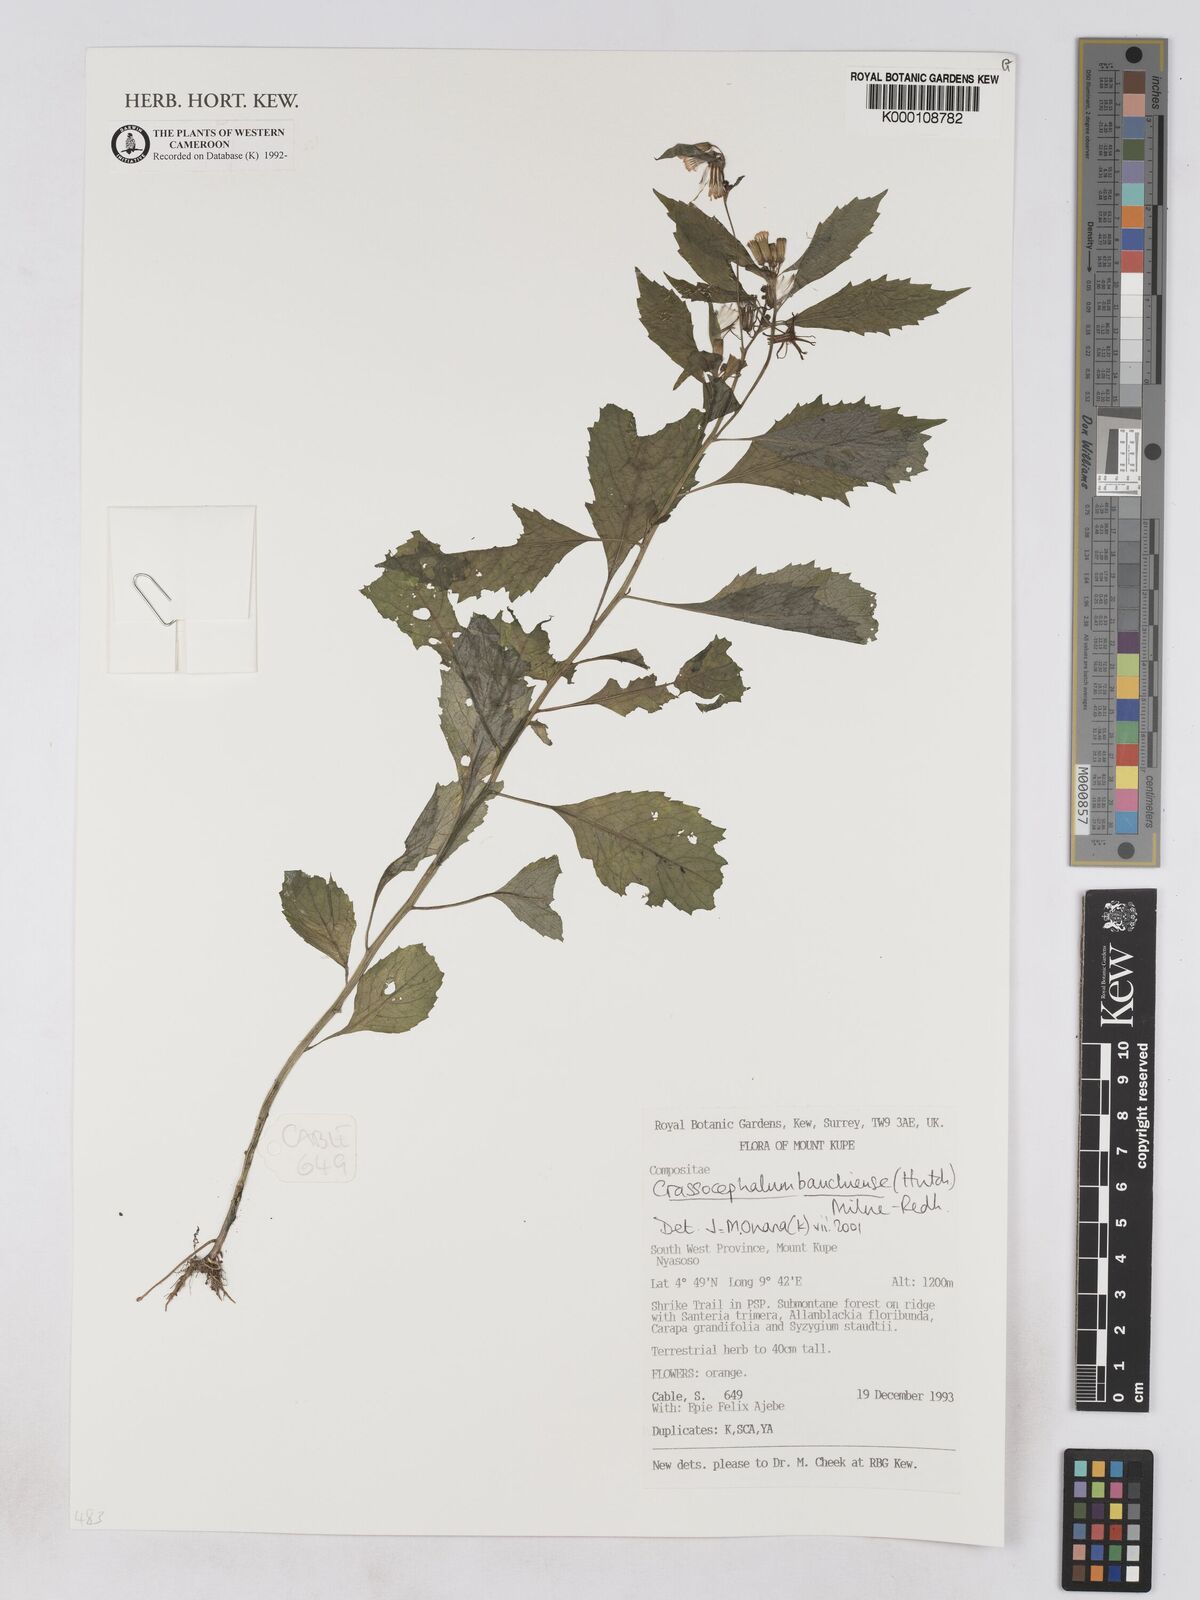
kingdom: Plantae
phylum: Tracheophyta
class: Magnoliopsida
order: Asterales
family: Asteraceae
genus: Crassocephalum
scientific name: Crassocephalum bauchiense
